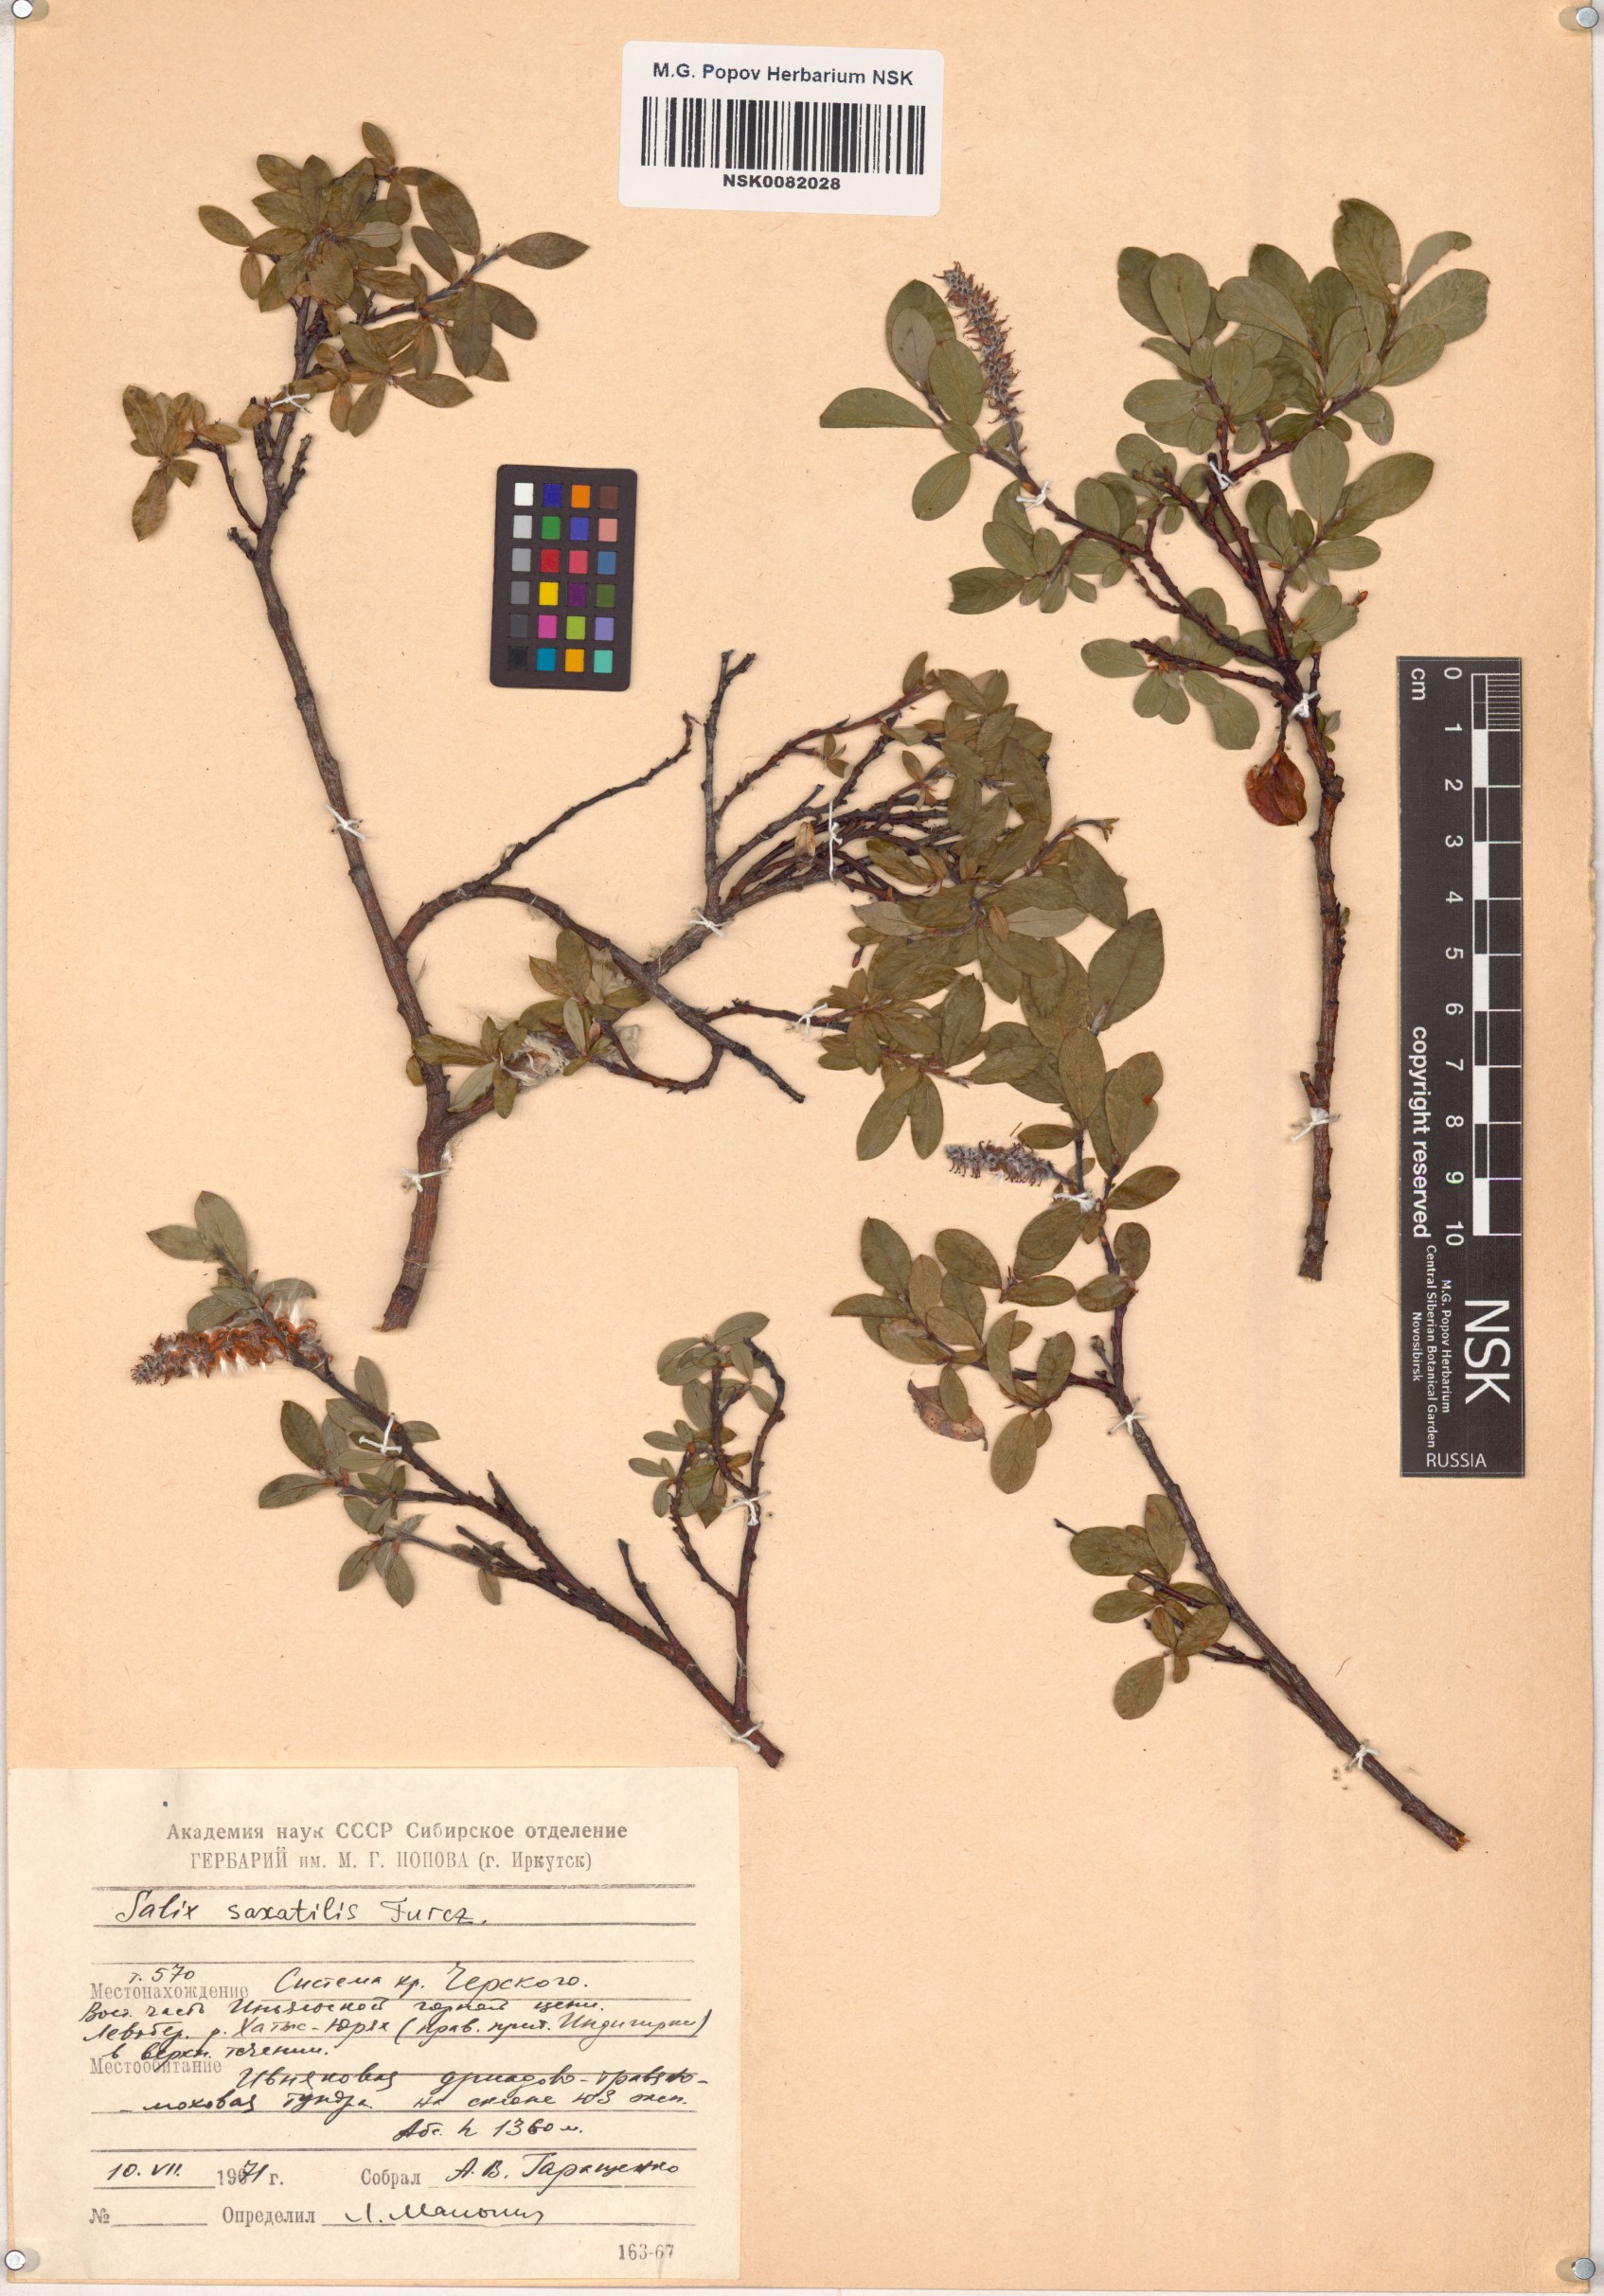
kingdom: Plantae
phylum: Tracheophyta
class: Magnoliopsida
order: Malpighiales
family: Salicaceae
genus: Salix
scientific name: Salix saxatilis
